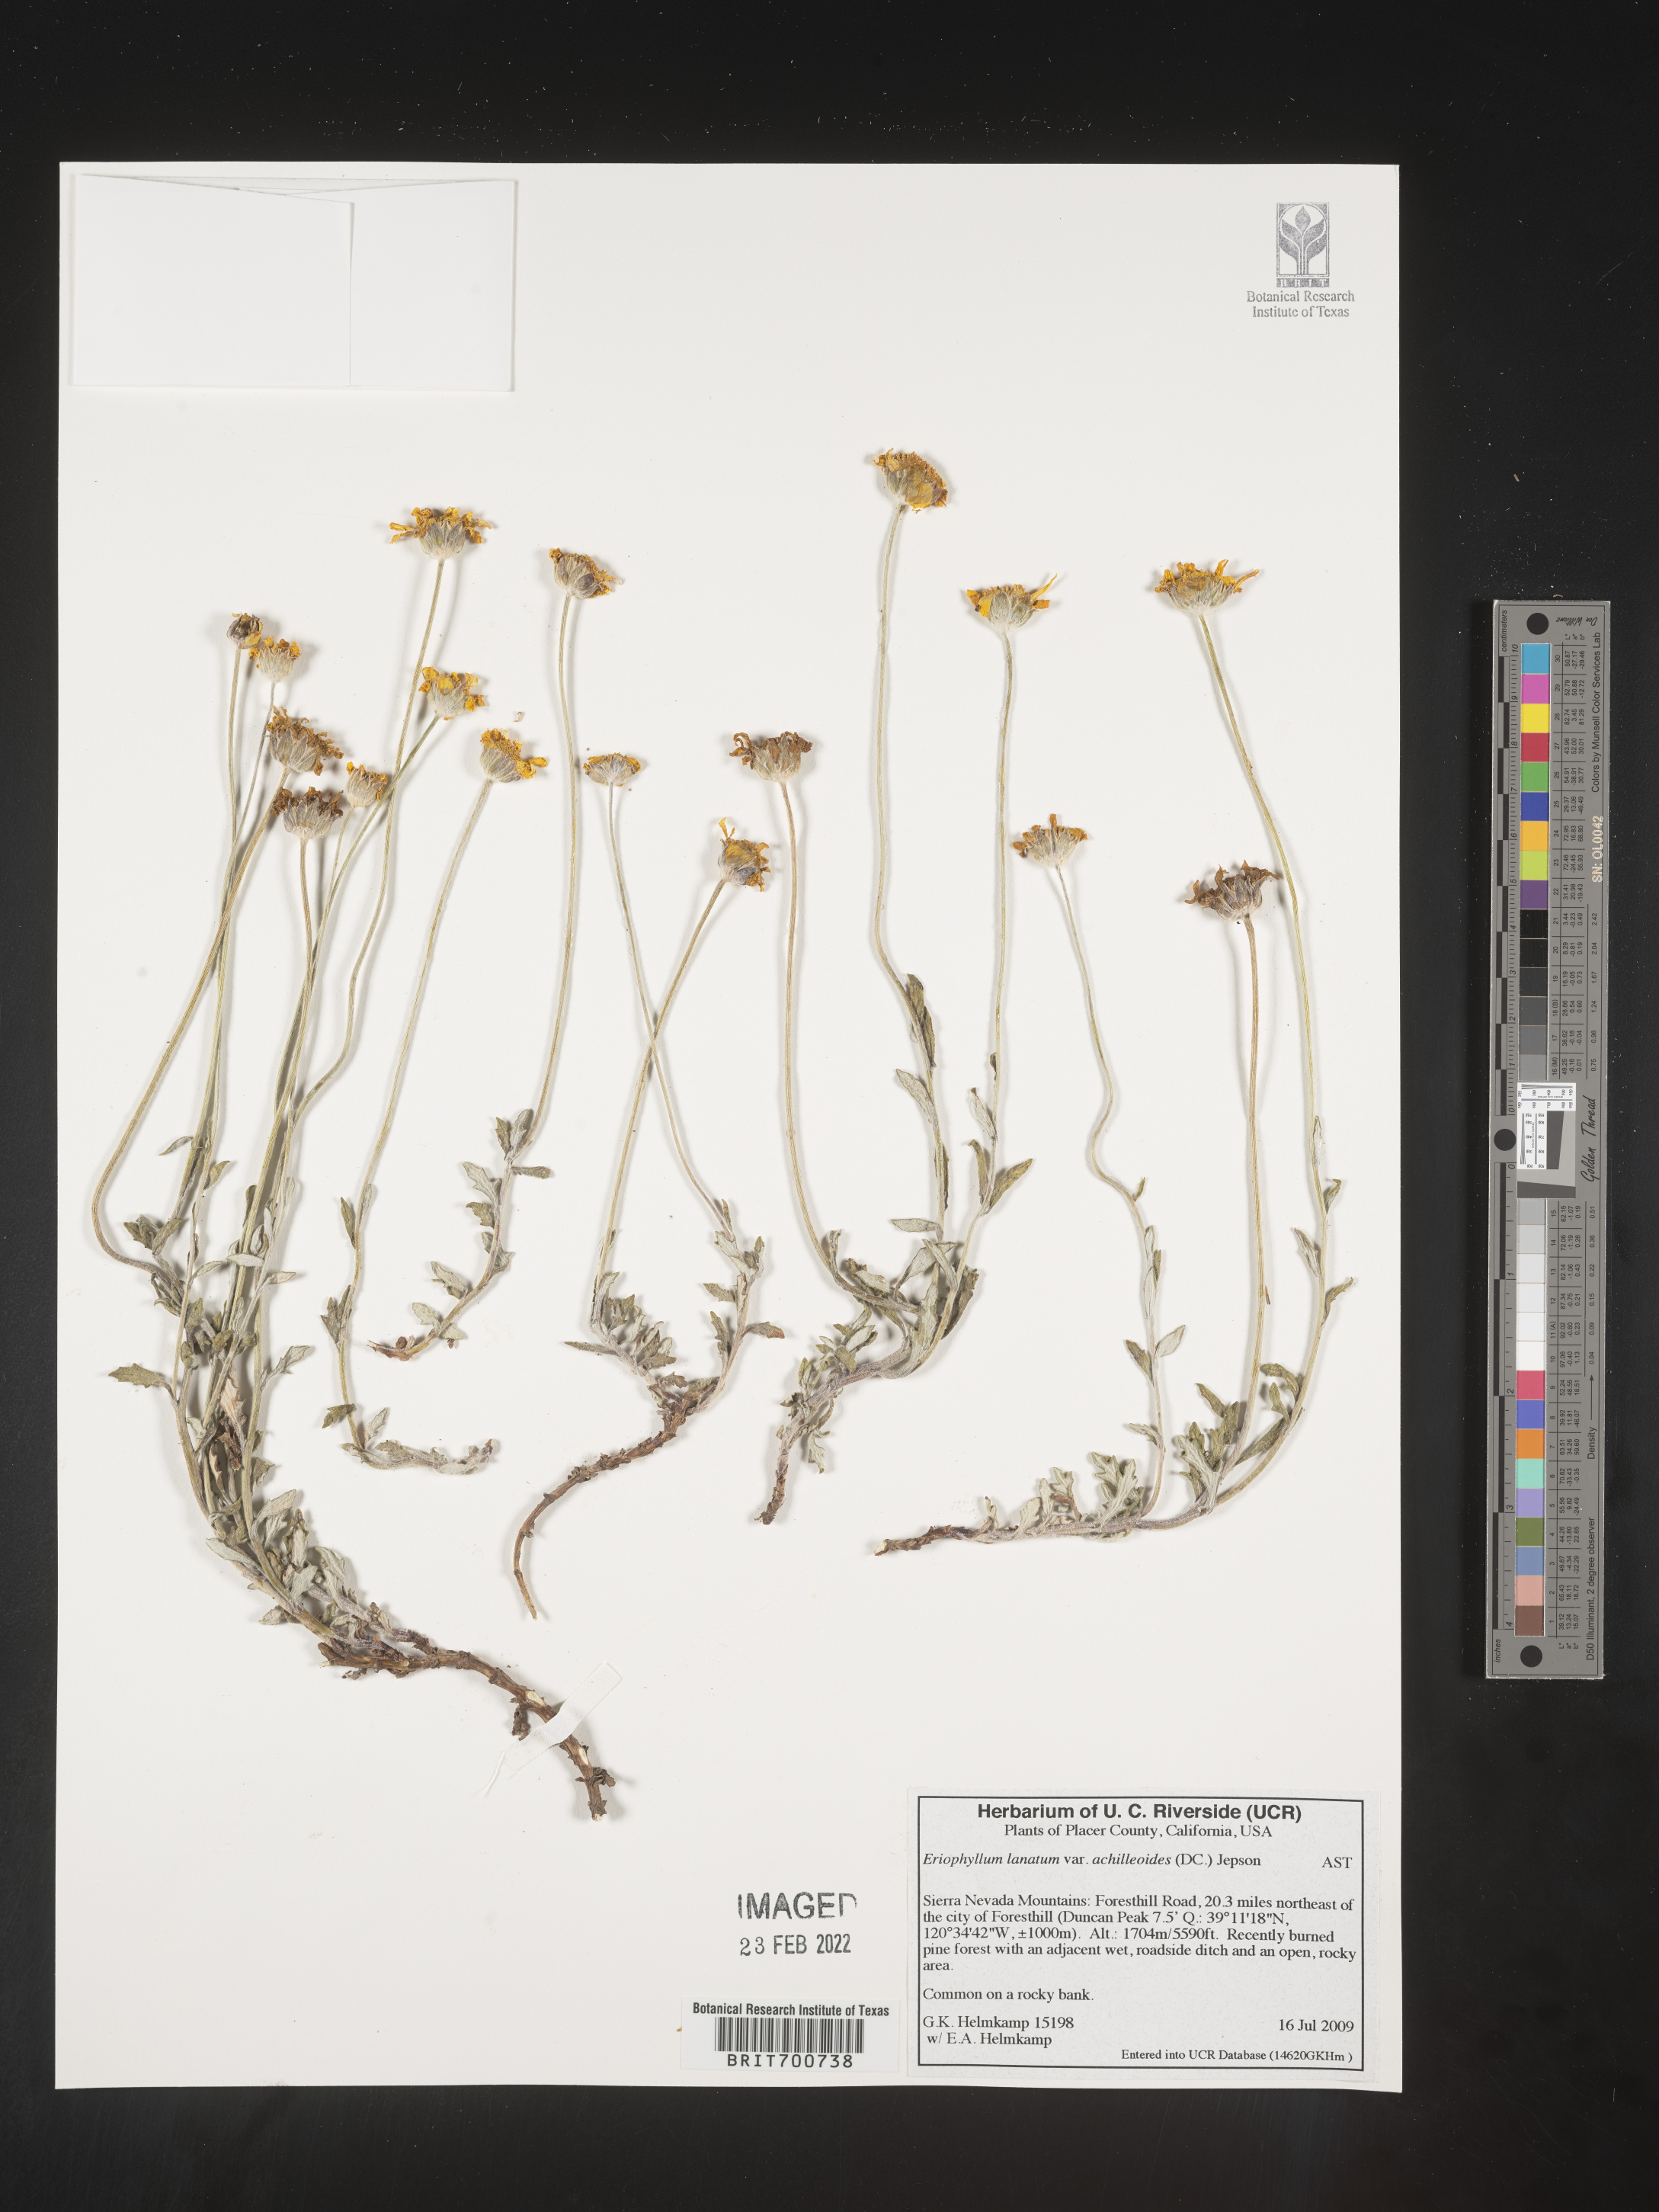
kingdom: Plantae
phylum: Tracheophyta
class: Magnoliopsida
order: Asterales
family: Asteraceae
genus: Eriophyllum
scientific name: Eriophyllum lanatum
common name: Common woolly-sunflower
